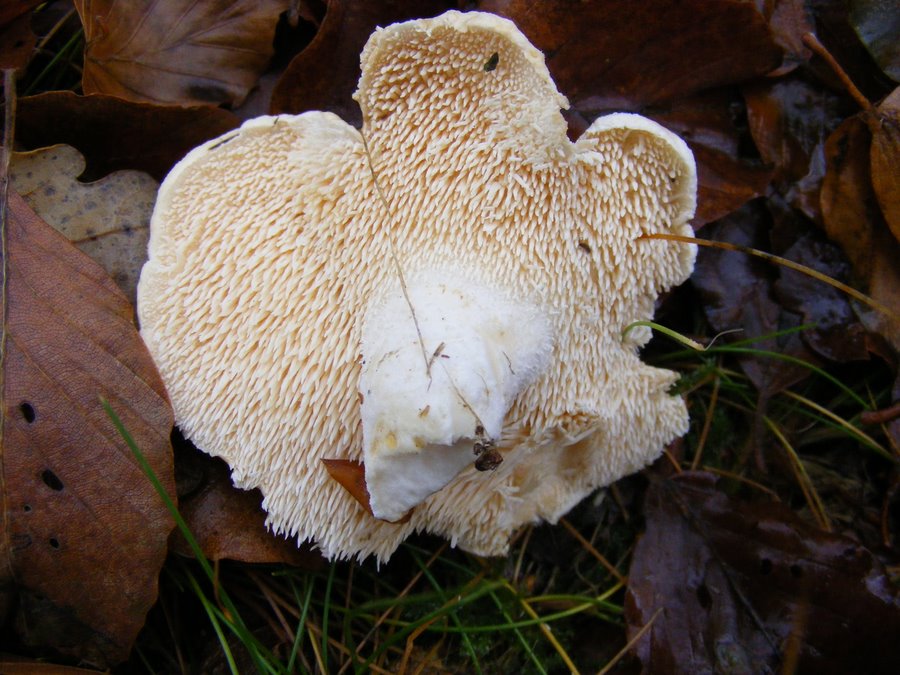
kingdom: Fungi
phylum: Basidiomycota
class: Agaricomycetes
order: Cantharellales
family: Hydnaceae
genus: Hydnum
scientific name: Hydnum repandum
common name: almindelig pigsvamp
